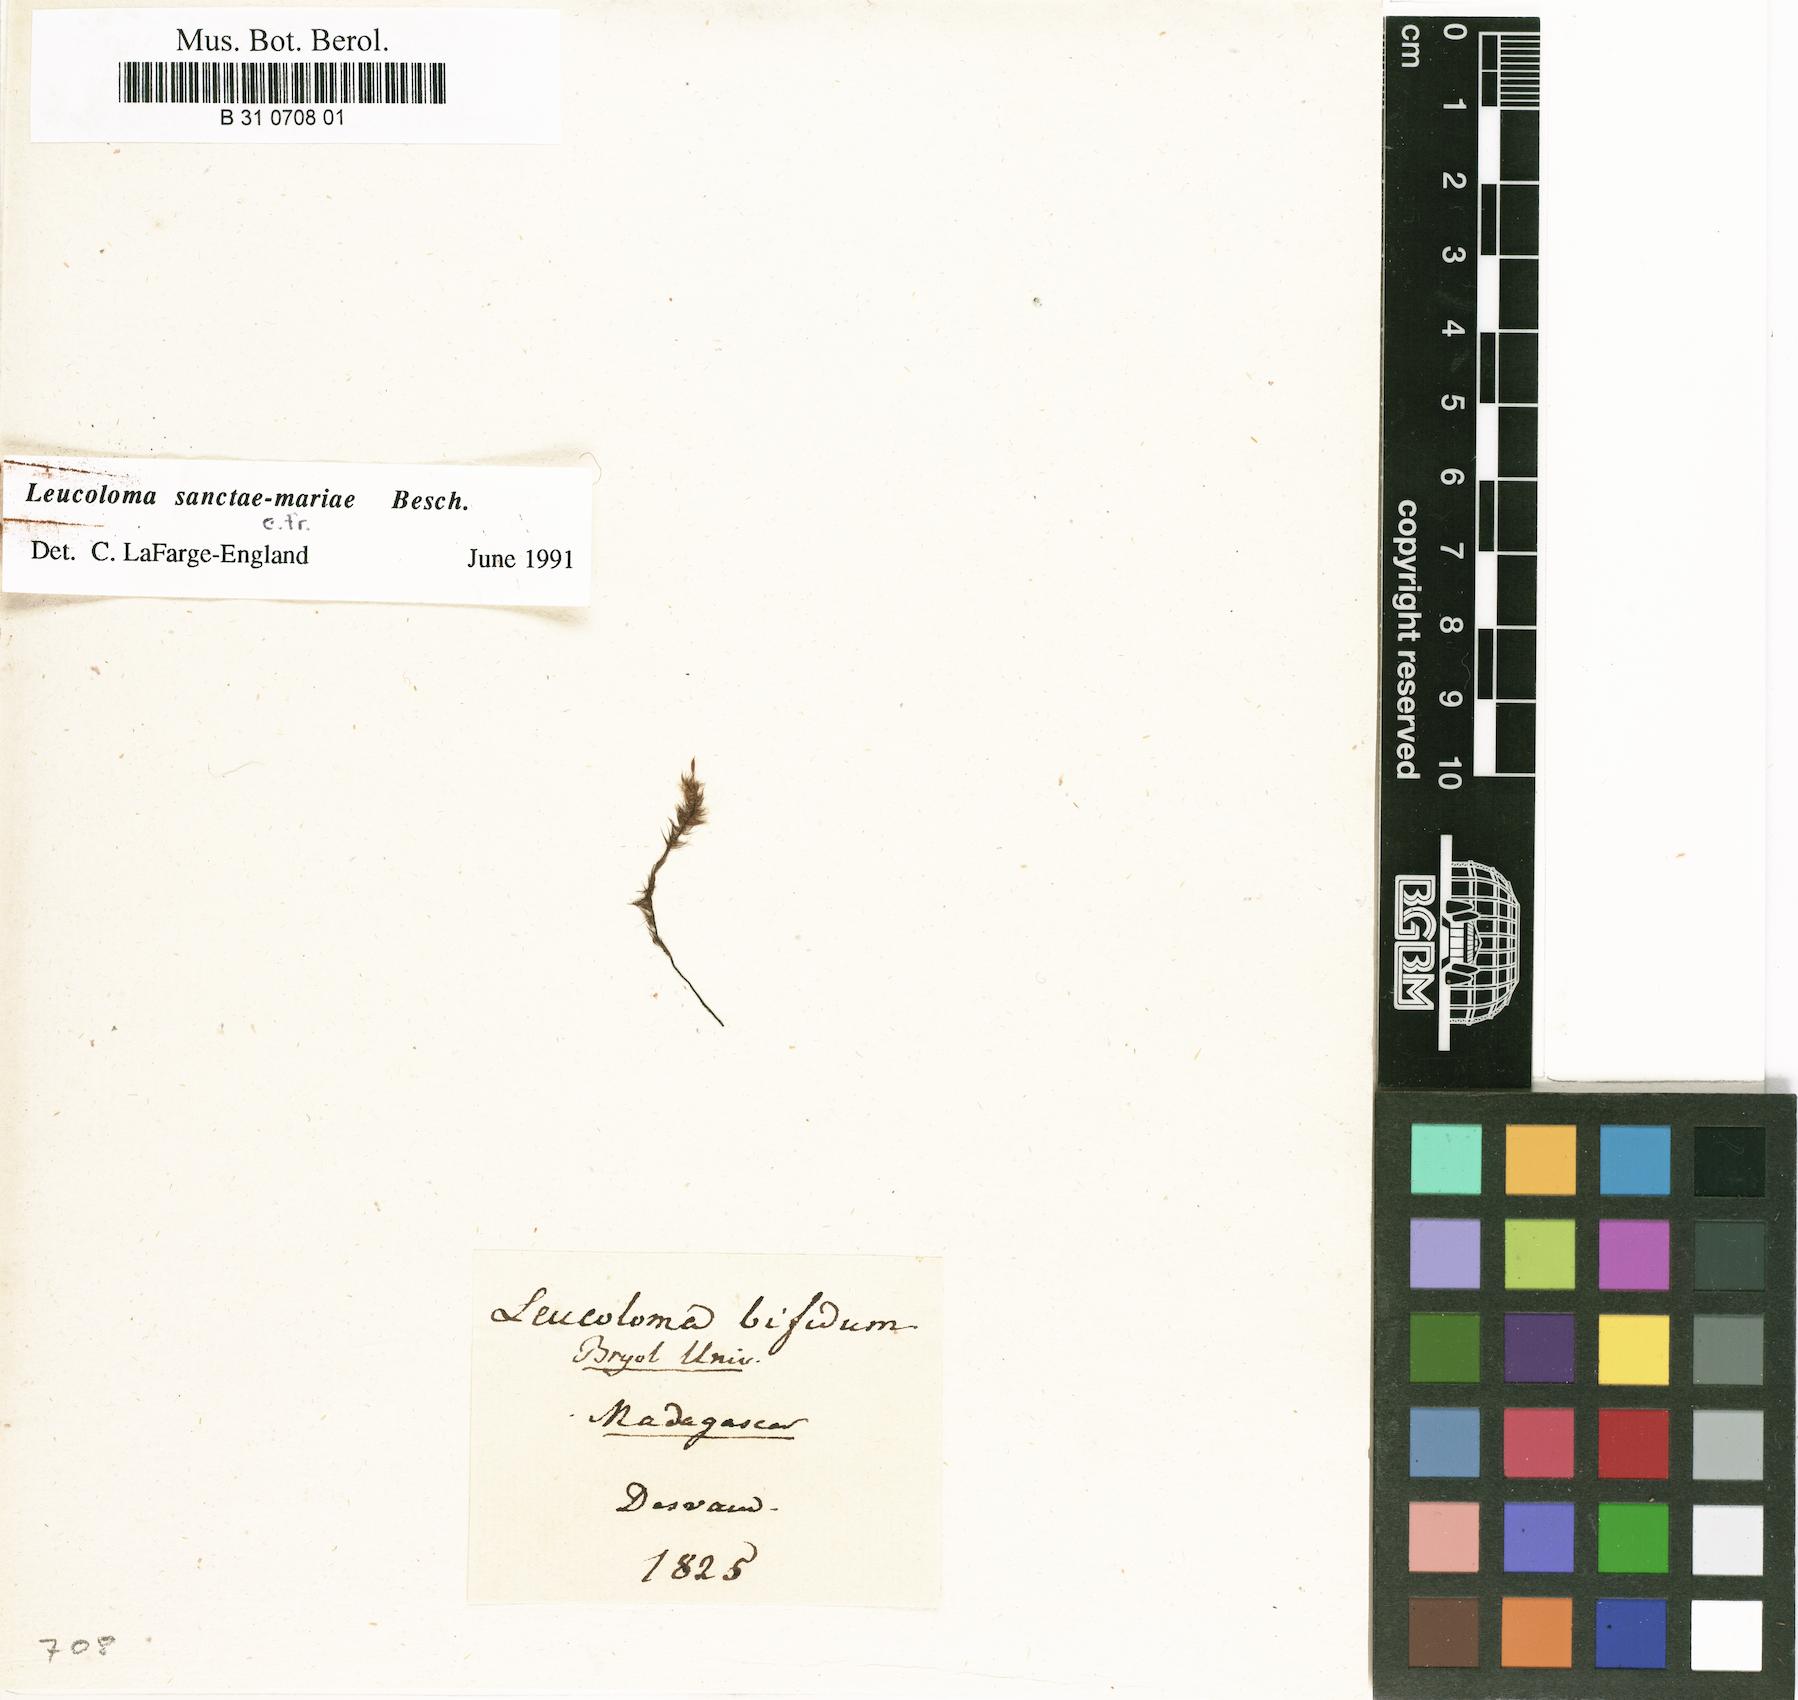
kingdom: Plantae
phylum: Bryophyta
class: Bryopsida
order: Dicranales
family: Dicranaceae
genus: Leucoloma
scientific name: Leucoloma bifidum
